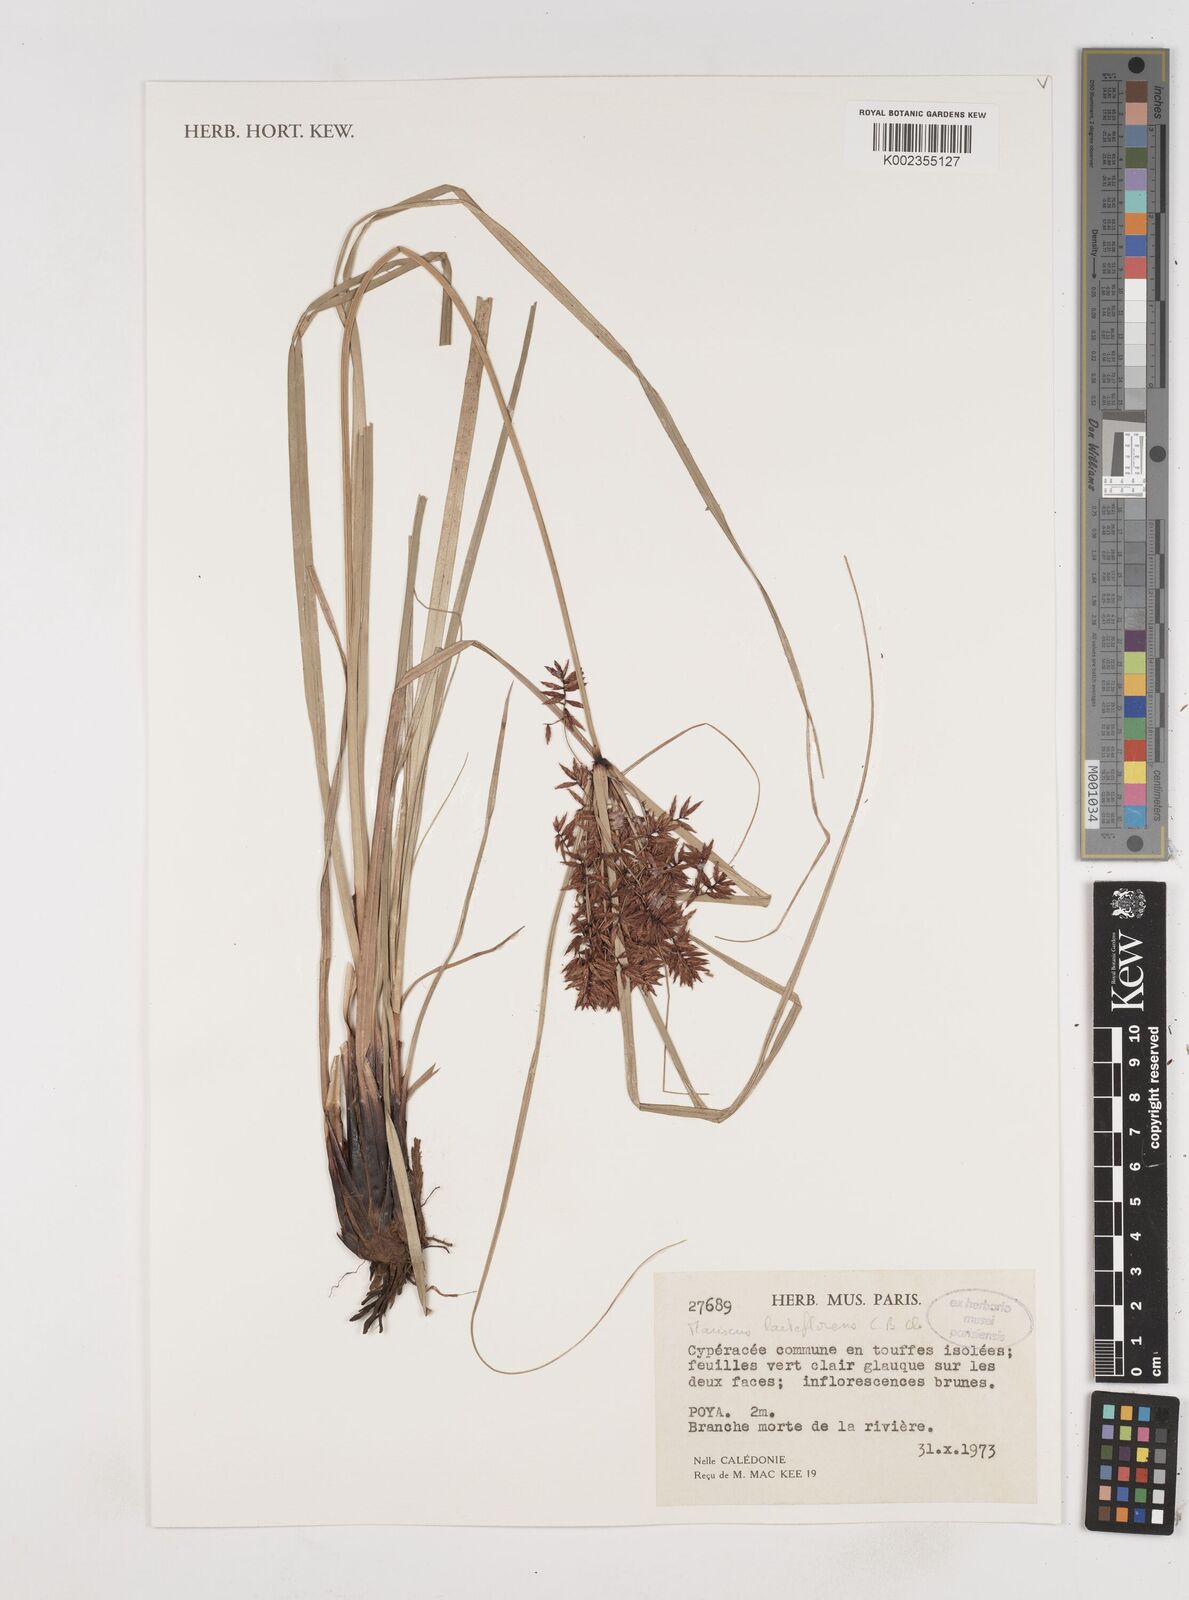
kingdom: Plantae
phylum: Tracheophyta
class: Liliopsida
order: Poales
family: Cyperaceae
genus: Cyperus
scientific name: Cyperus laeteflorens
